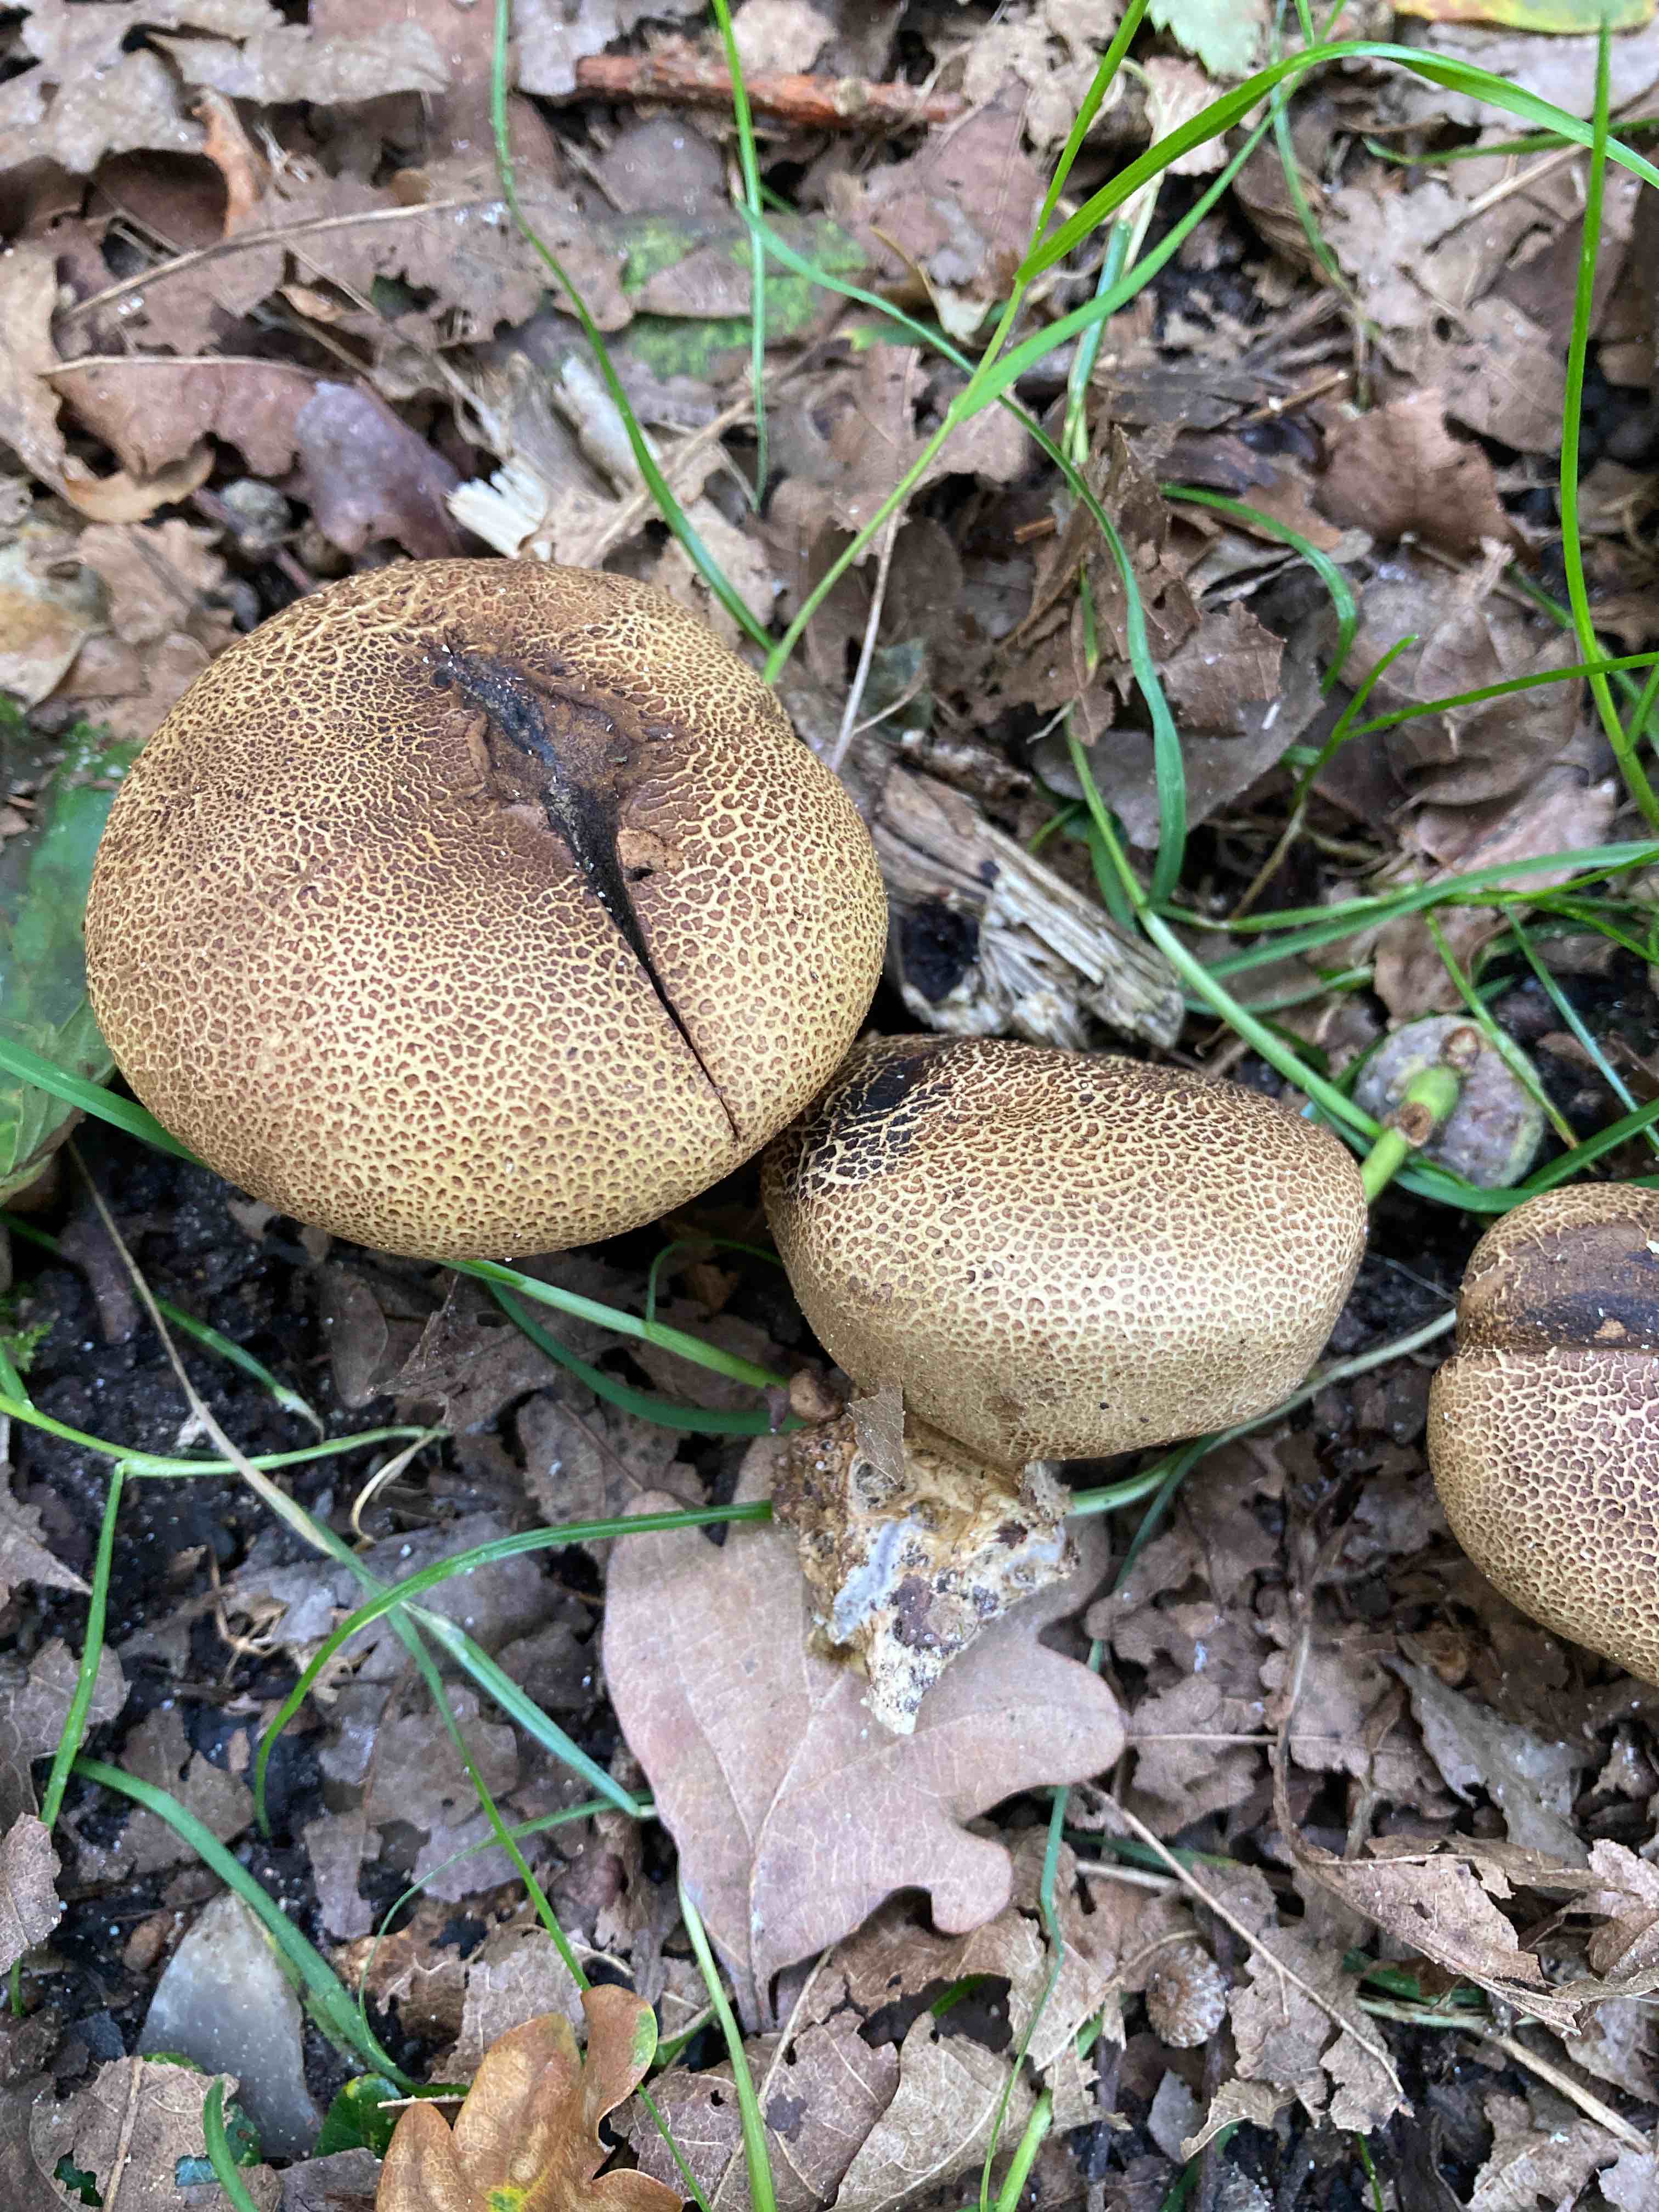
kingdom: Fungi
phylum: Basidiomycota
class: Agaricomycetes
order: Boletales
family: Sclerodermataceae
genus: Scleroderma
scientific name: Scleroderma verrucosum
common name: stilket bruskbold
